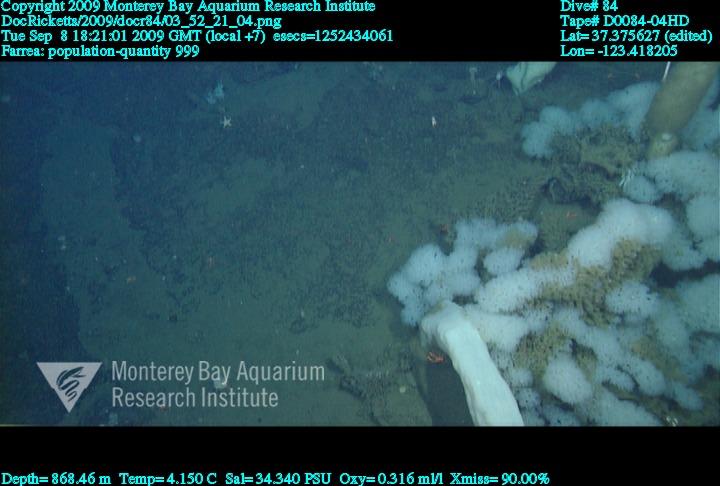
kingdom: Animalia
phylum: Porifera
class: Hexactinellida
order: Sceptrulophora
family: Farreidae
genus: Farrea
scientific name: Farrea
